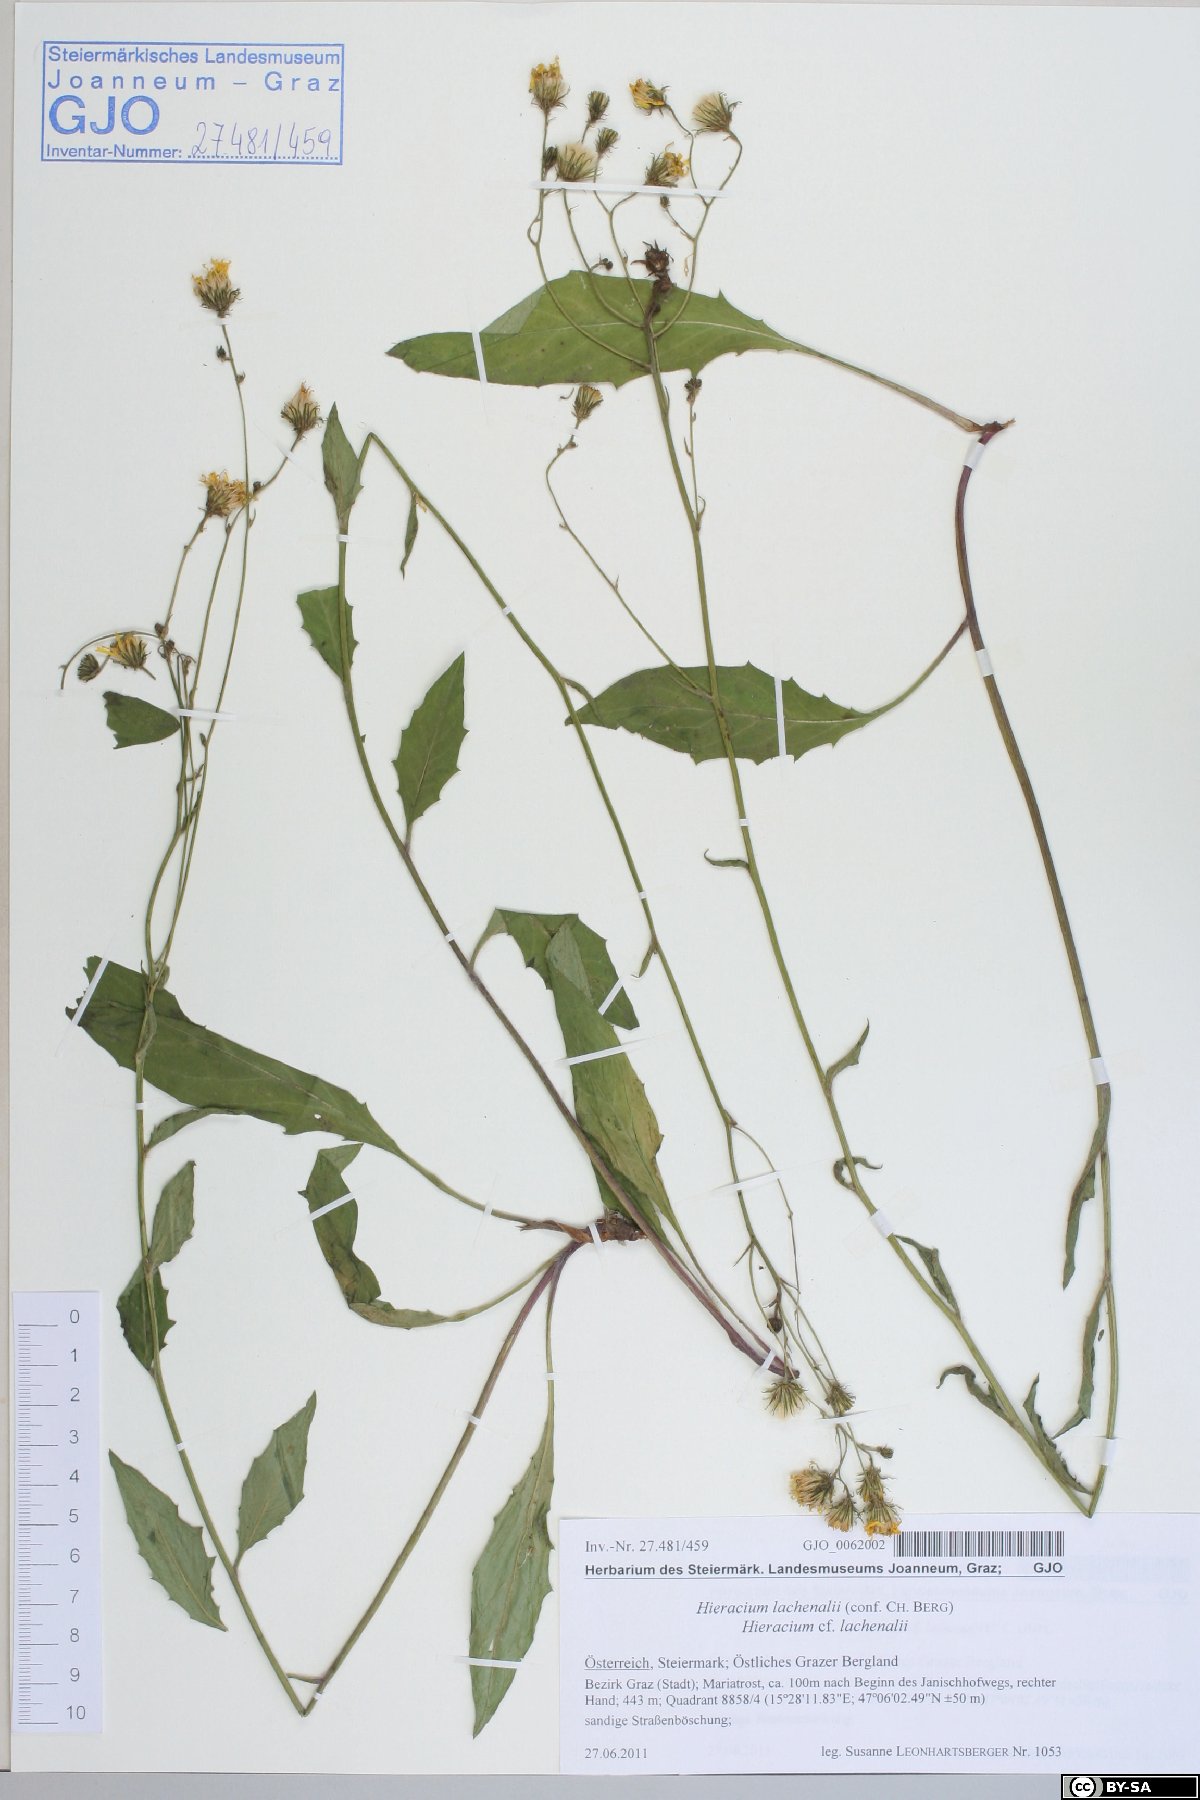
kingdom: Plantae
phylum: Tracheophyta
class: Magnoliopsida
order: Asterales
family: Asteraceae
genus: Hieracium
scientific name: Hieracium lachenalii
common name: Common hawkweed
